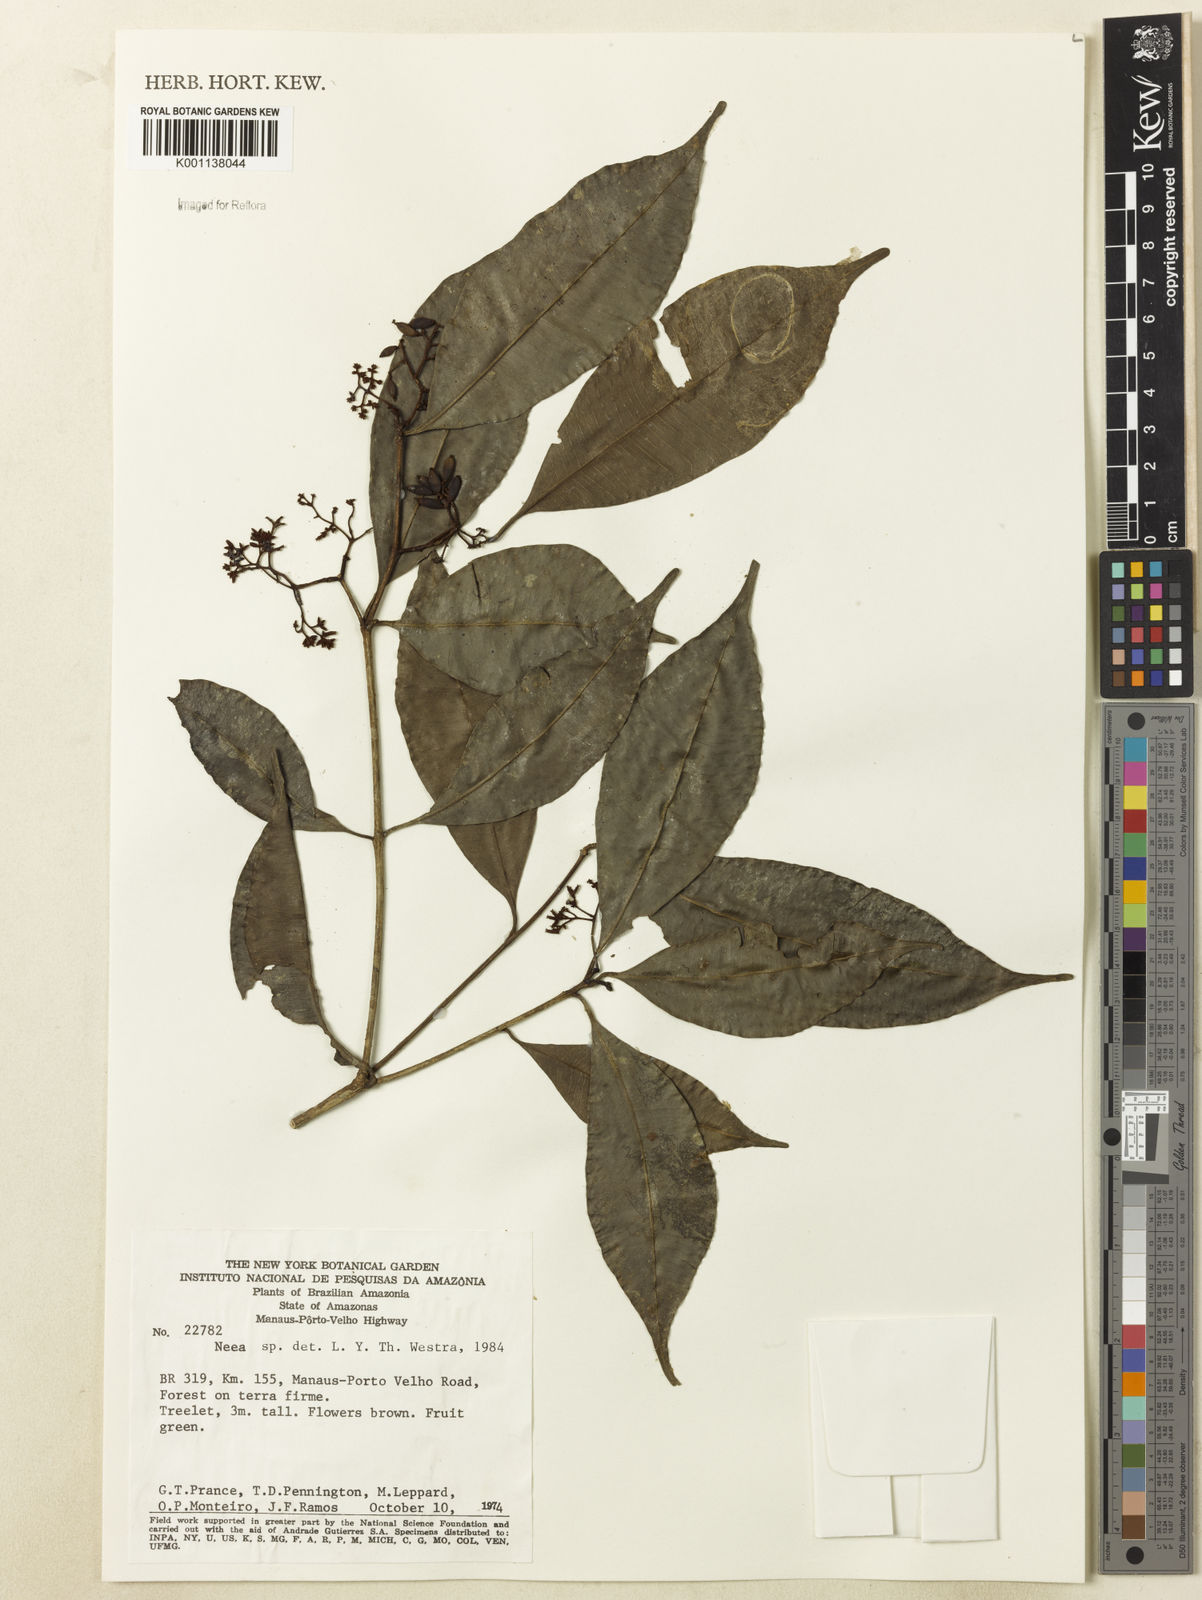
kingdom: Plantae
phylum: Tracheophyta
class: Magnoliopsida
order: Caryophyllales
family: Nyctaginaceae
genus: Neea
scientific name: Neea
